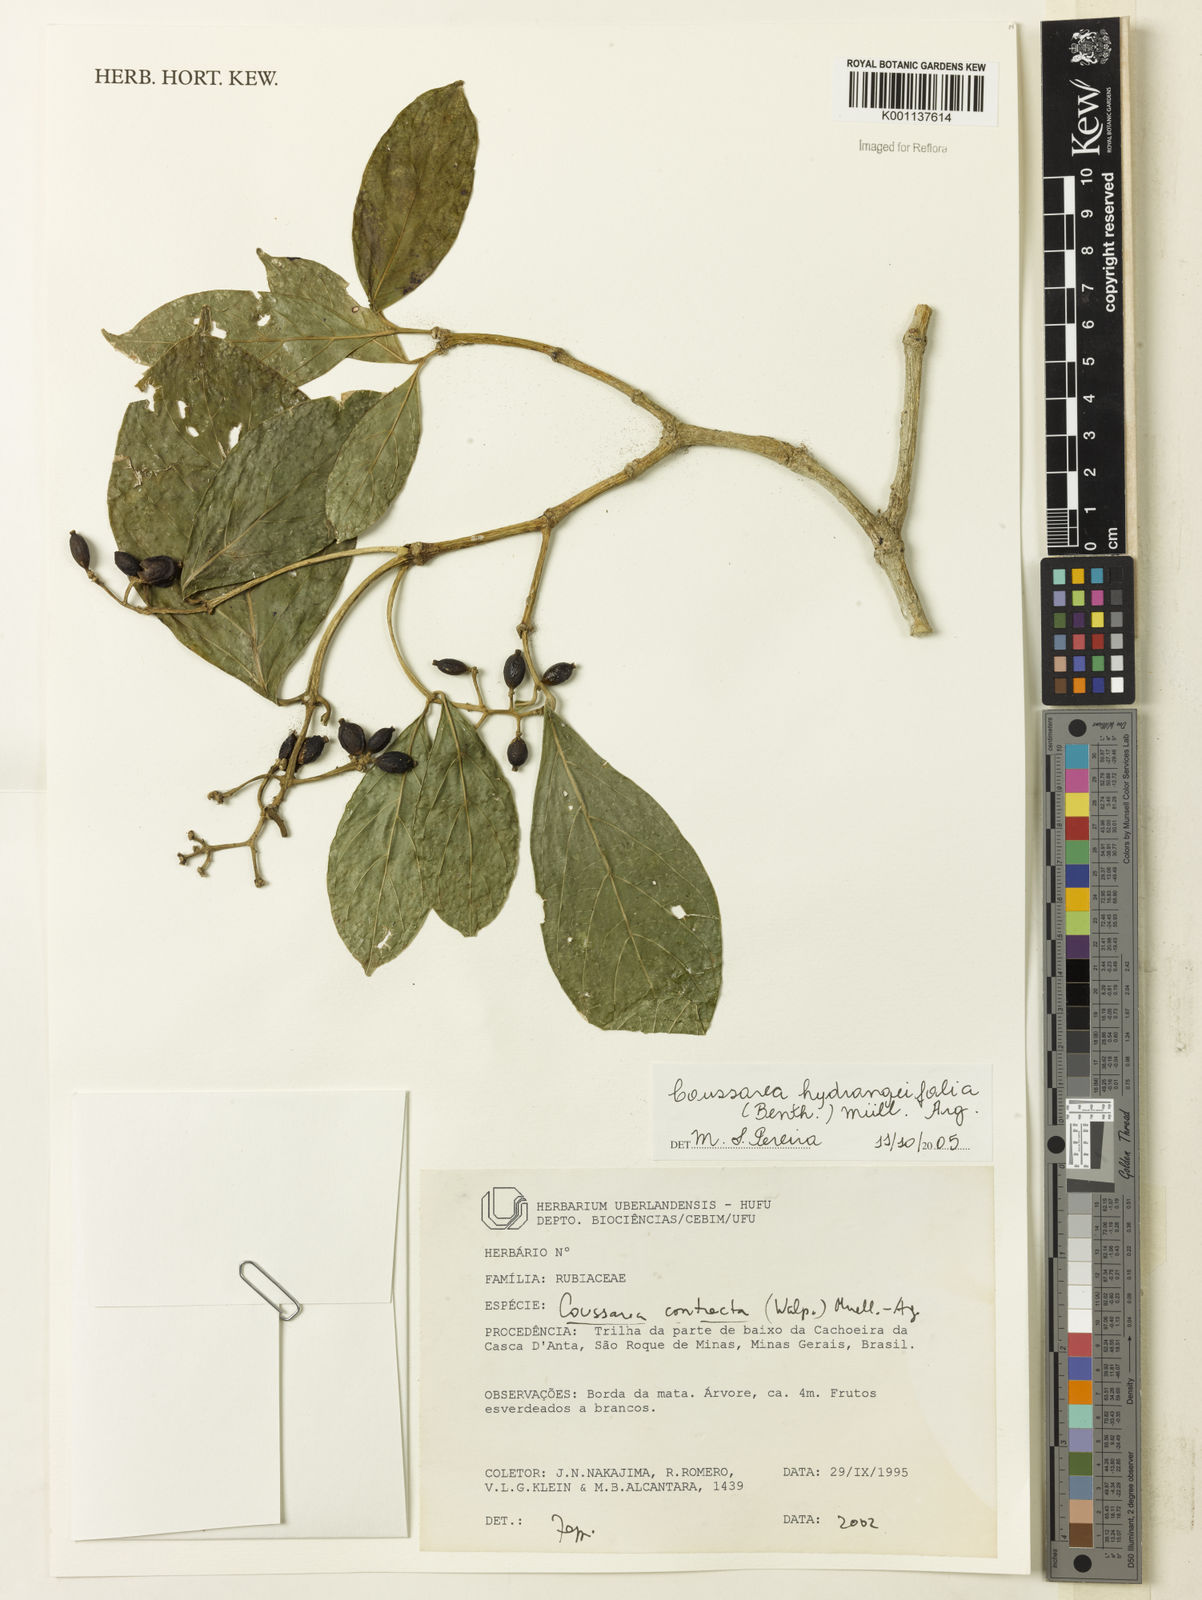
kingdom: Plantae
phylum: Tracheophyta
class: Magnoliopsida
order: Gentianales
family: Rubiaceae
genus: Coussarea
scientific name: Coussarea
